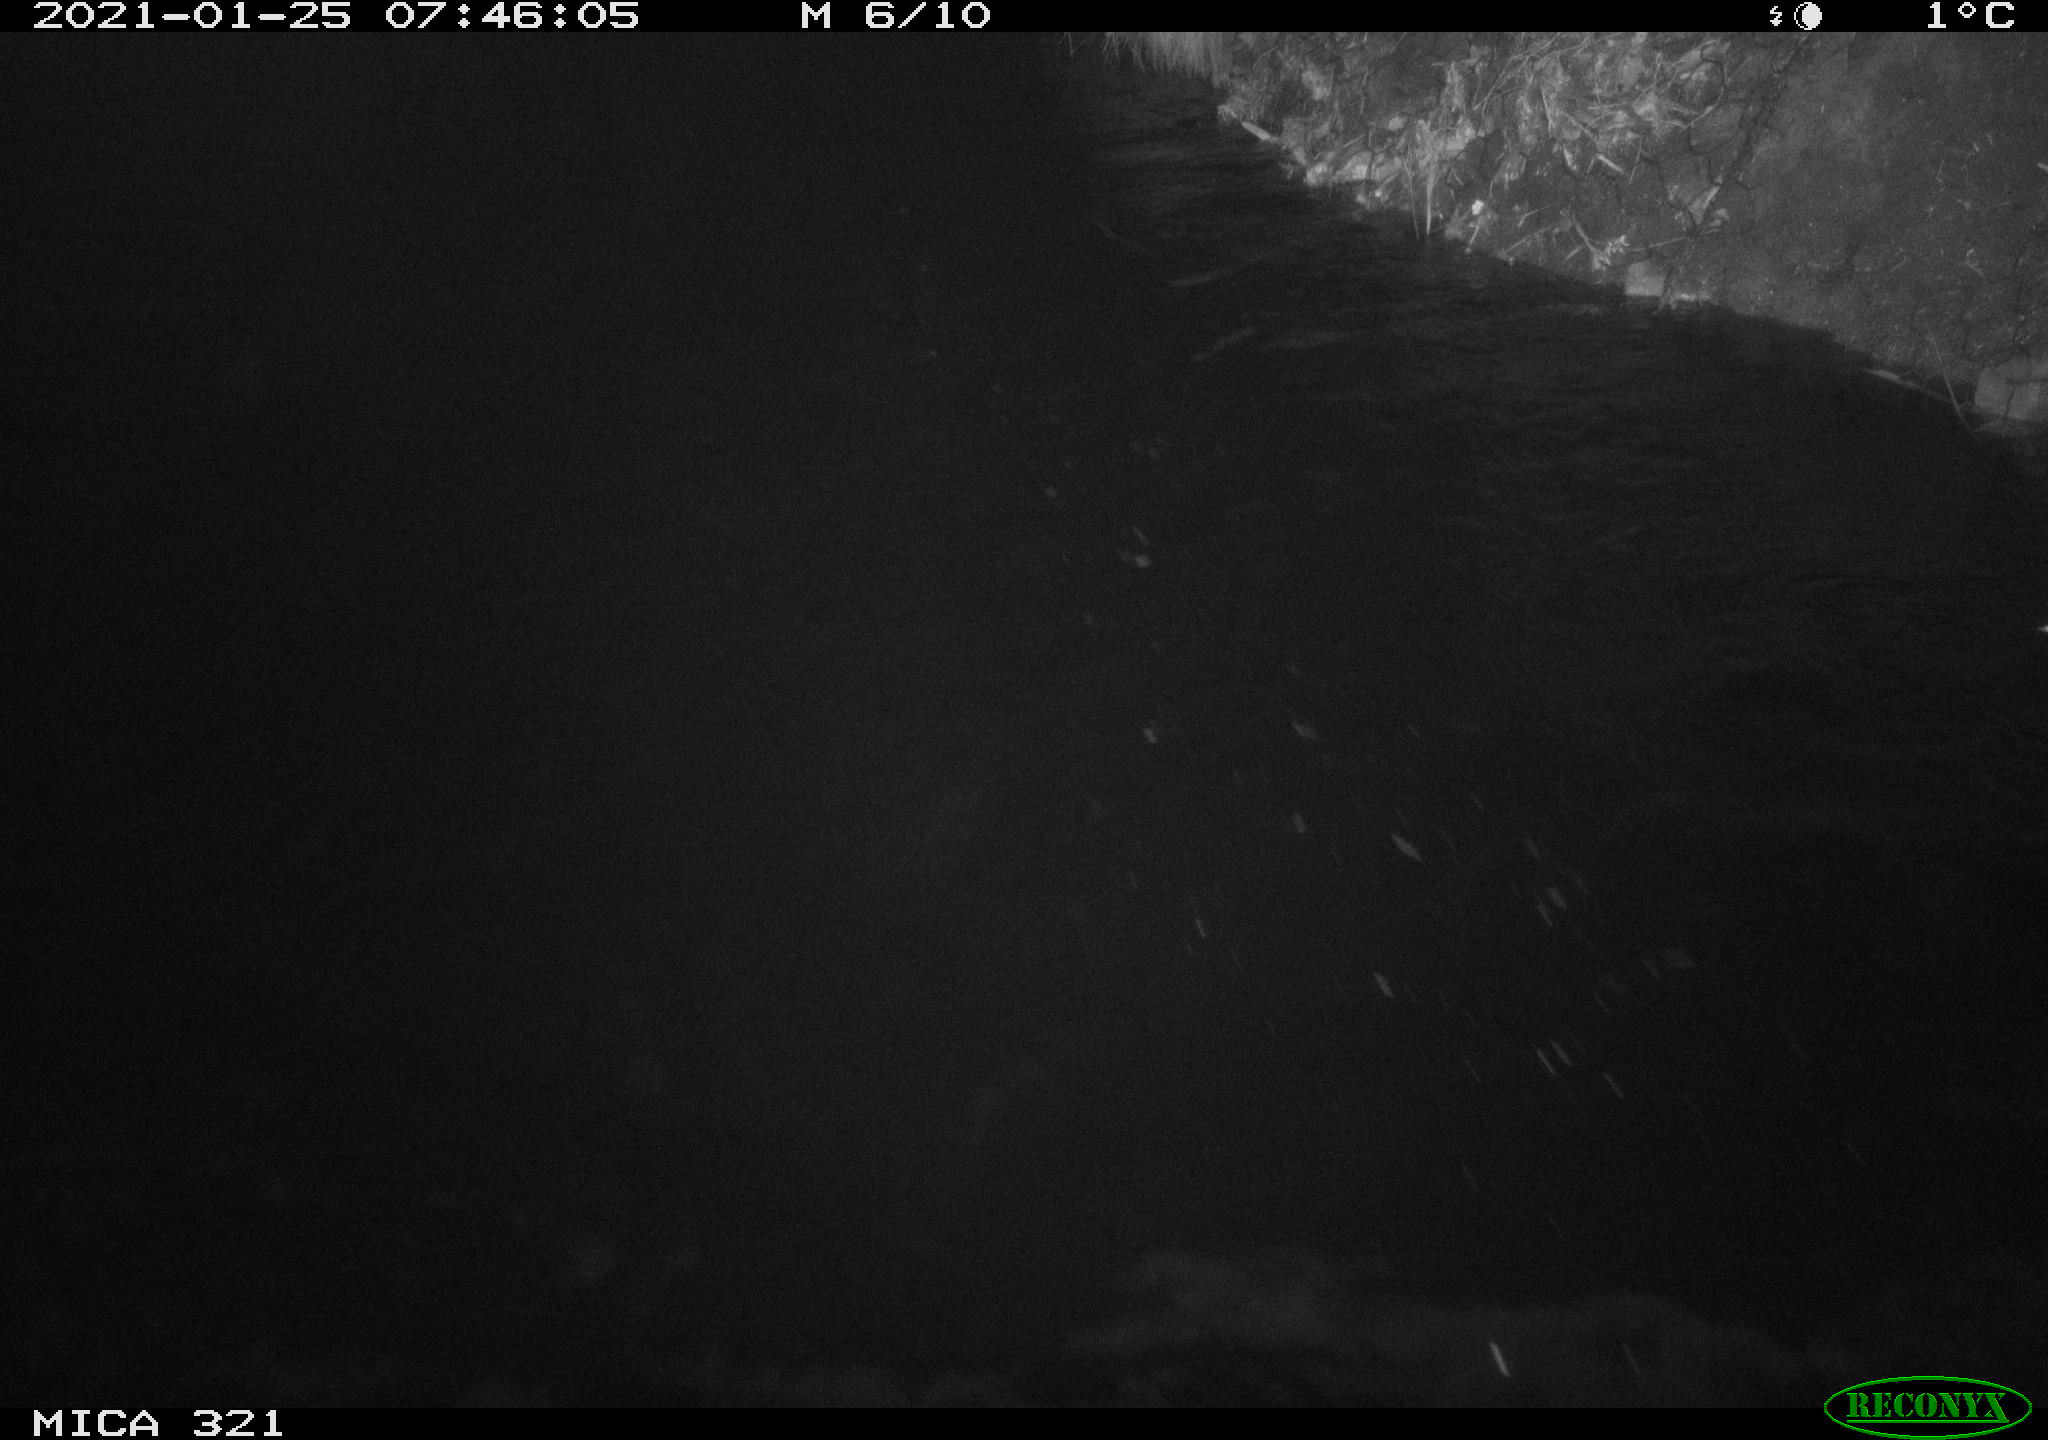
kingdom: Animalia
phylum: Chordata
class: Aves
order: Anseriformes
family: Anatidae
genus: Anas
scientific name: Anas platyrhynchos
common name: Mallard
